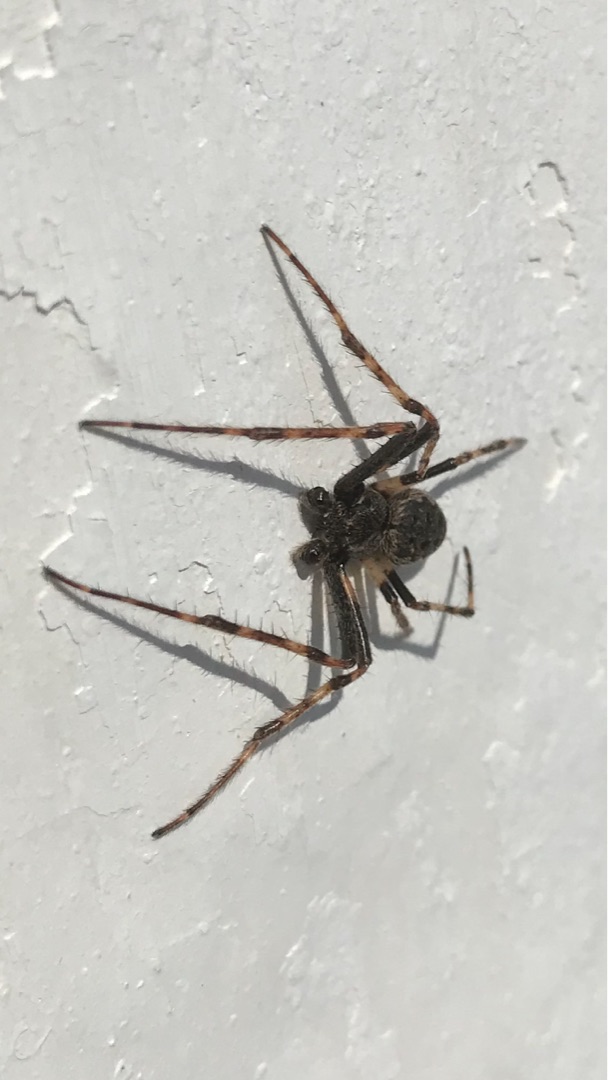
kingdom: Animalia
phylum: Arthropoda
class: Arachnida
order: Araneae
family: Araneidae
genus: Nuctenea
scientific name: Nuctenea umbratica
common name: Flad hjulspinder
